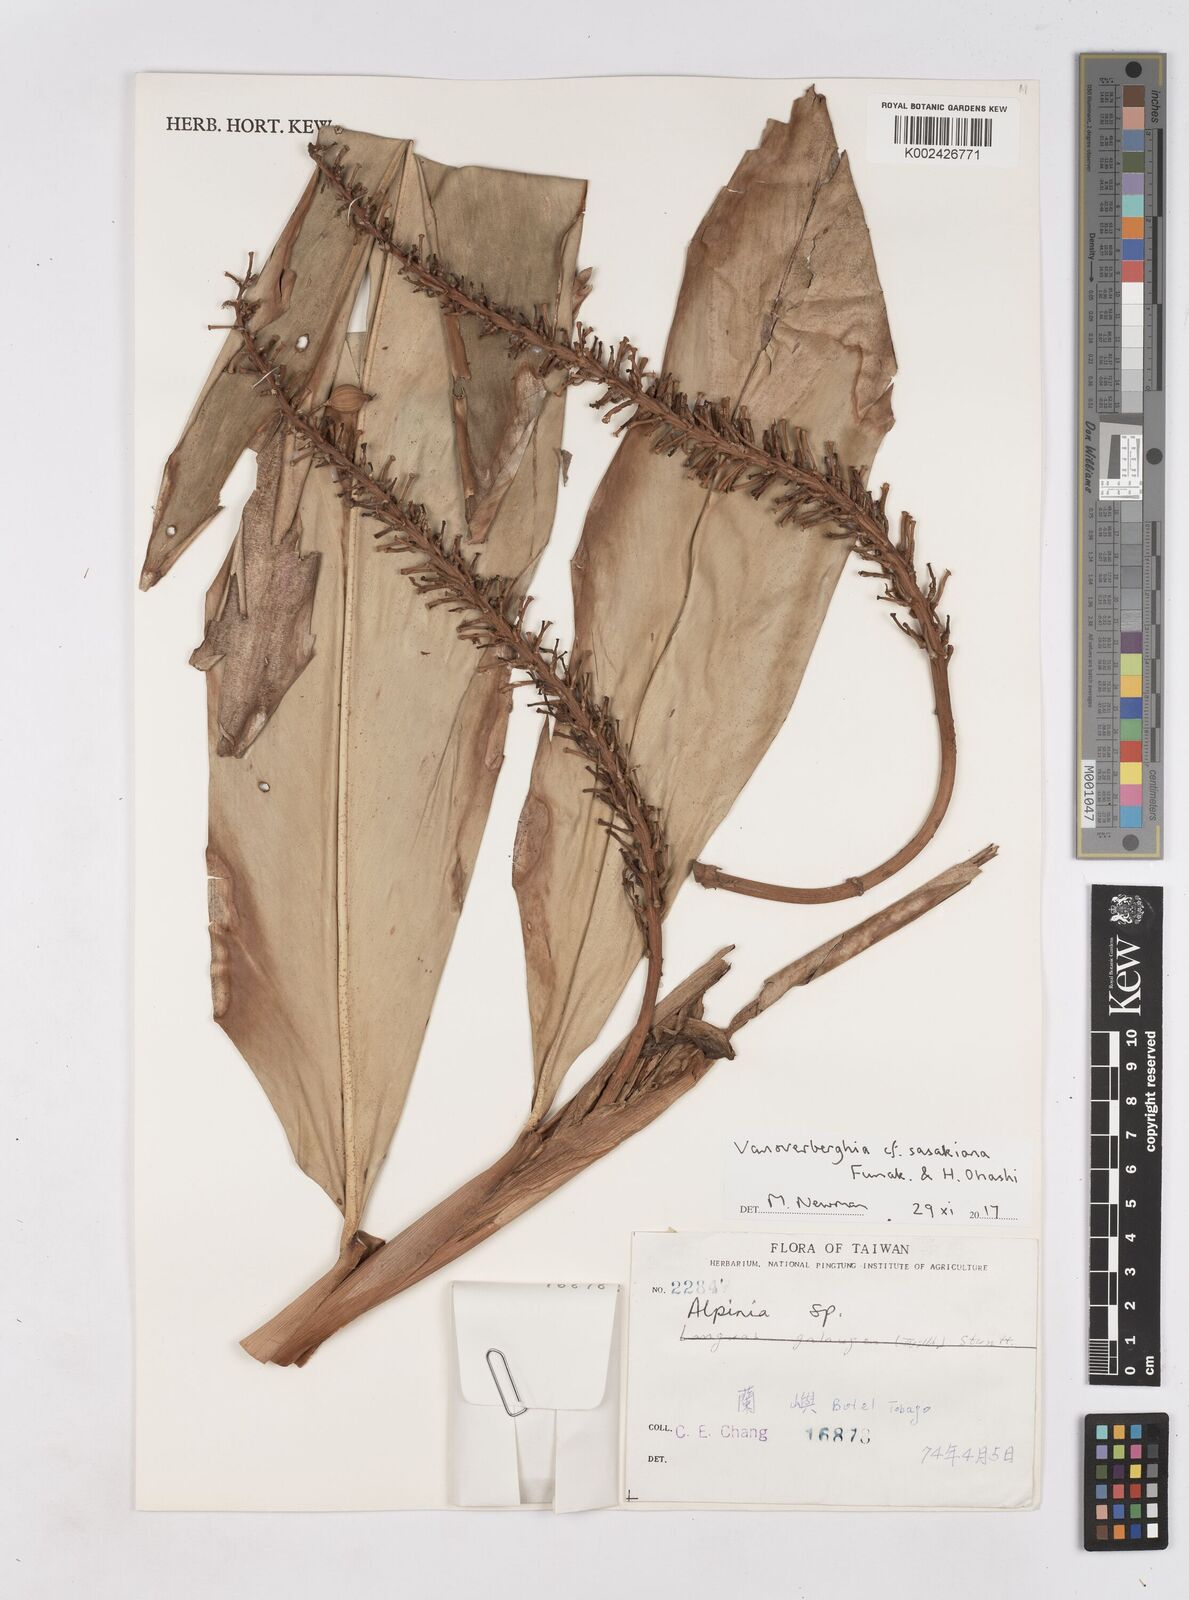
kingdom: Plantae
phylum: Tracheophyta
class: Liliopsida
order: Zingiberales
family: Zingiberaceae
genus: Vanoverberghia
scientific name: Vanoverberghia sasakiana
